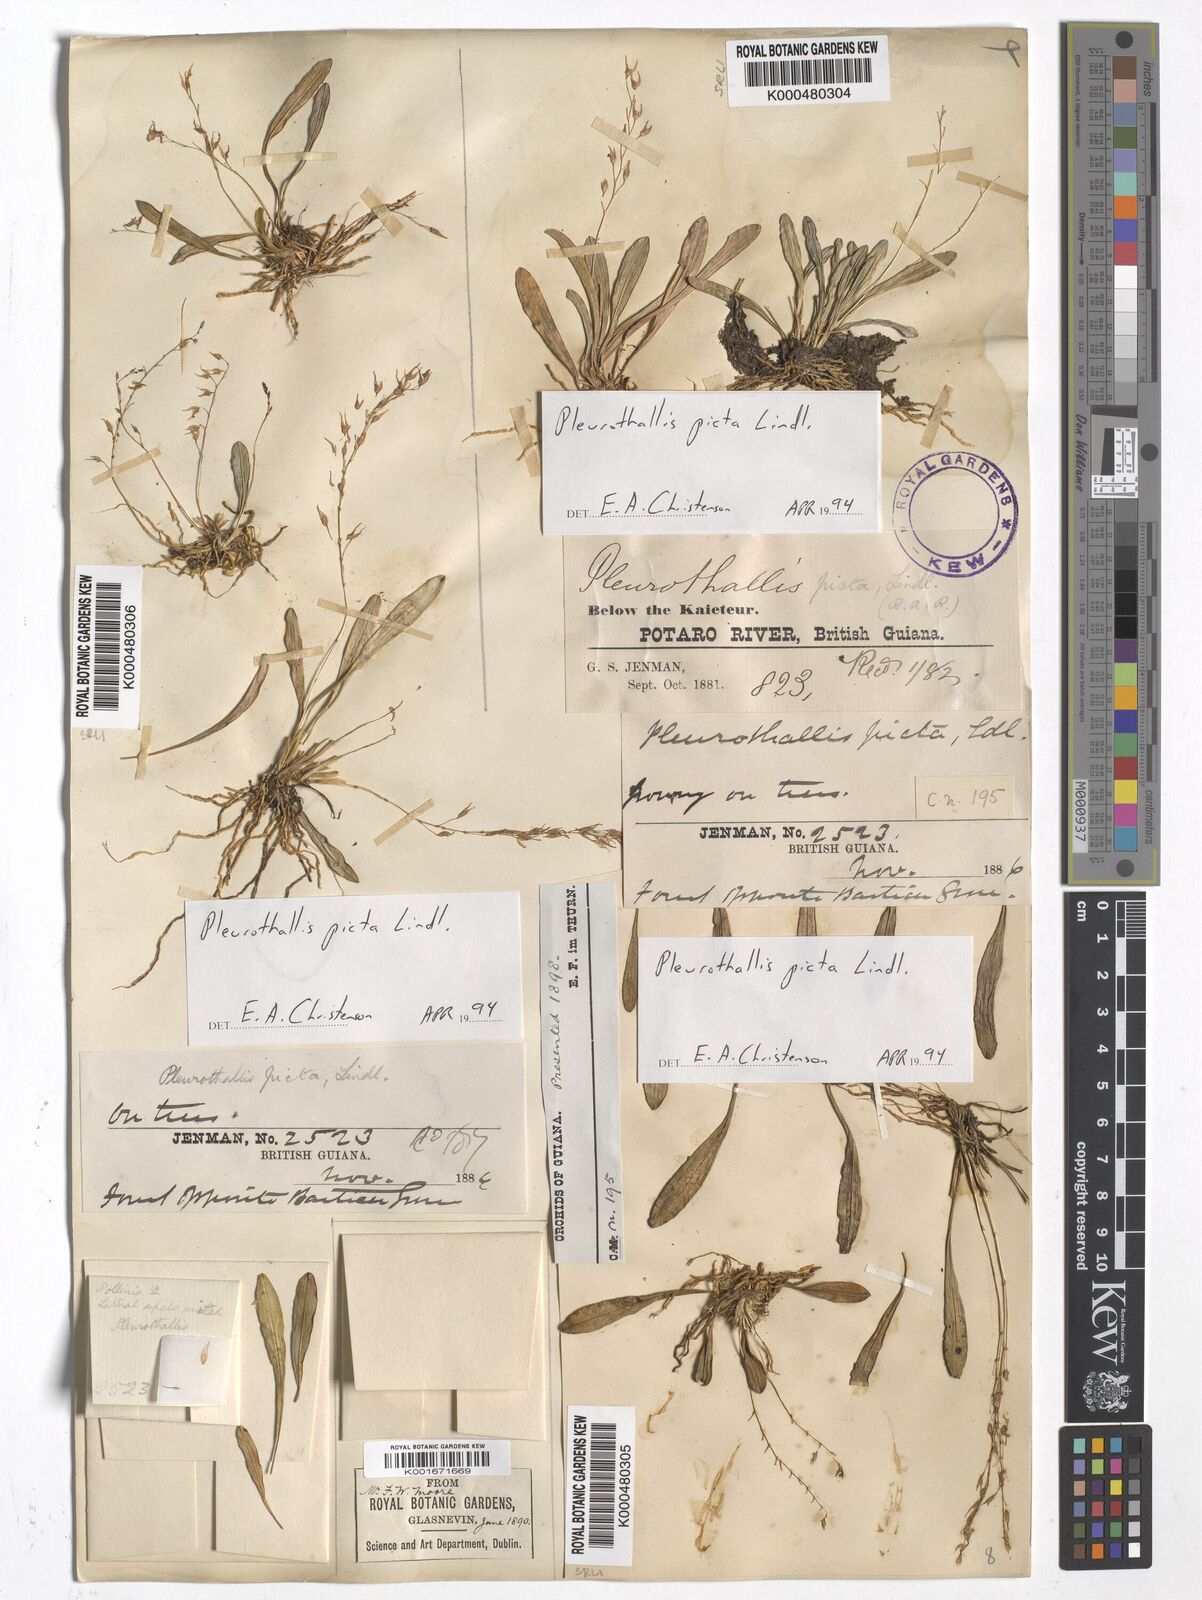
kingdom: Plantae
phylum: Tracheophyta
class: Liliopsida
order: Asparagales
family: Orchidaceae
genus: Specklinia
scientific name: Specklinia picta
